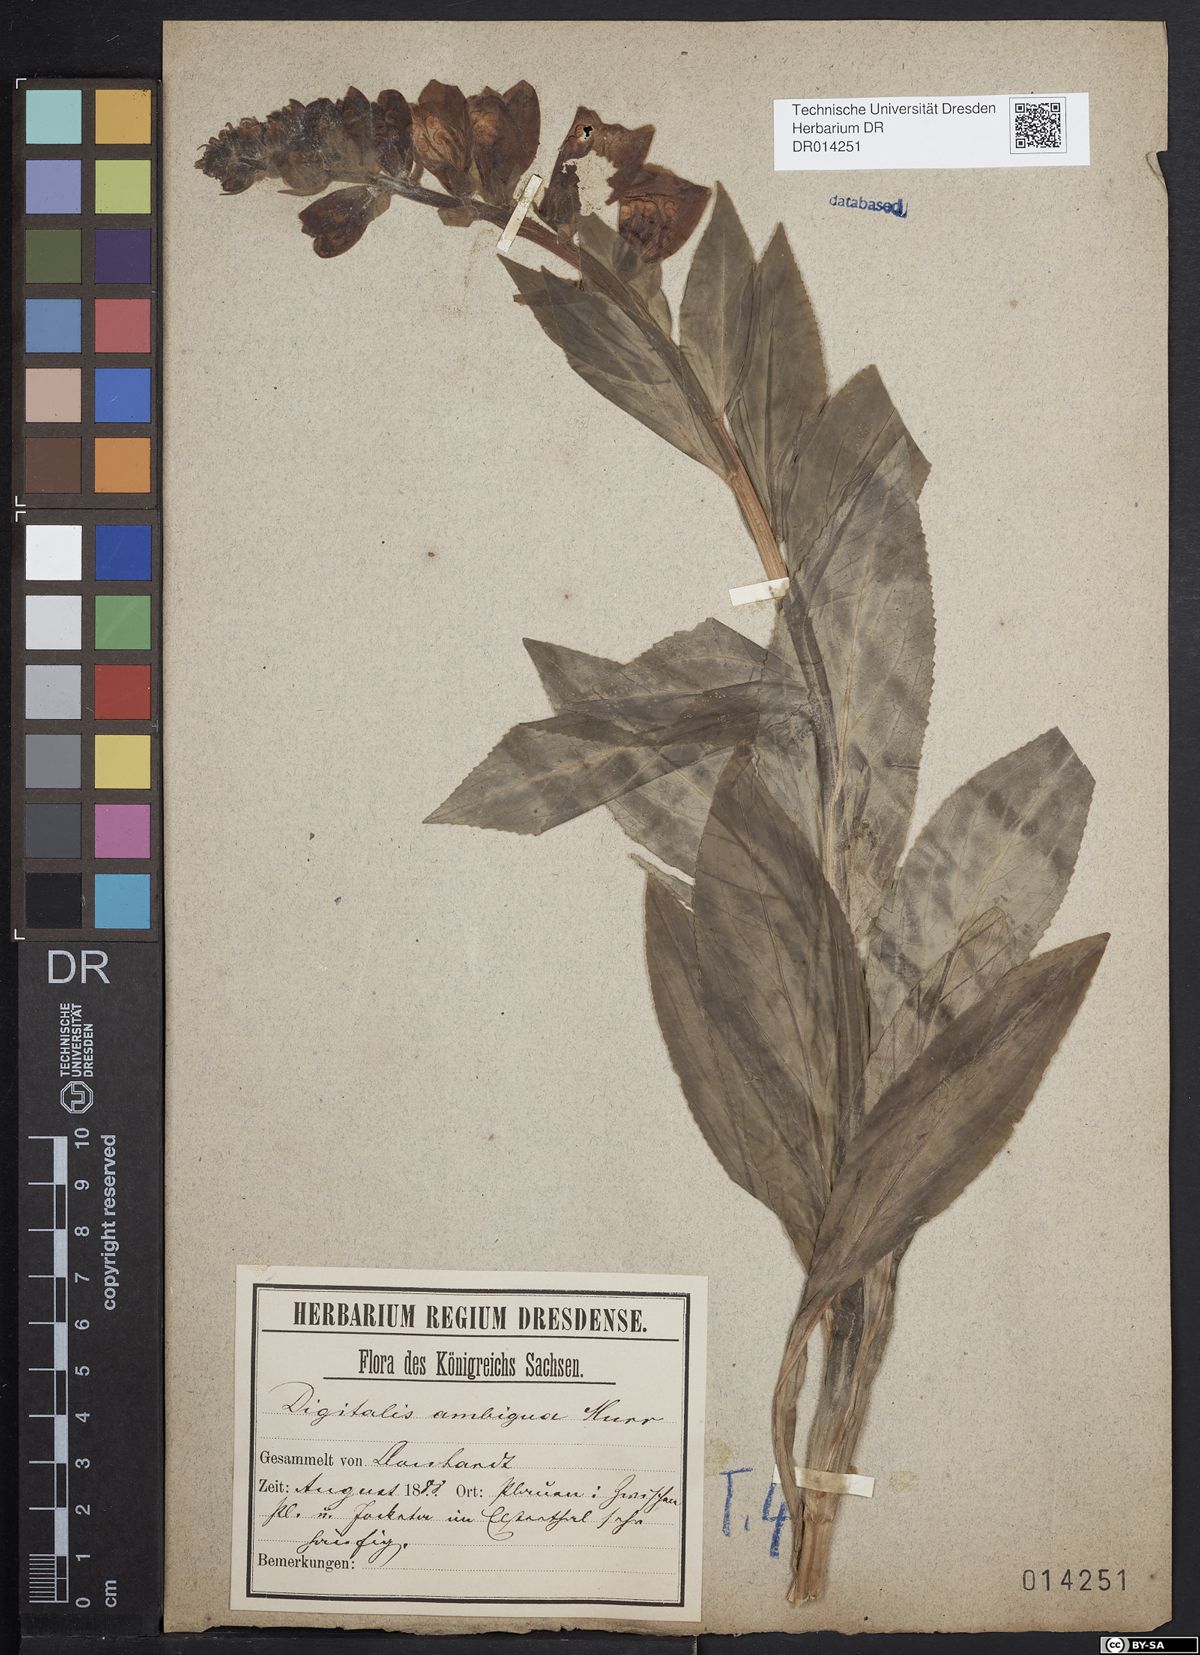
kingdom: Plantae
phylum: Tracheophyta
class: Magnoliopsida
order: Lamiales
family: Plantaginaceae
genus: Digitalis
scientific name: Digitalis grandiflora
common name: Yellow foxglove
